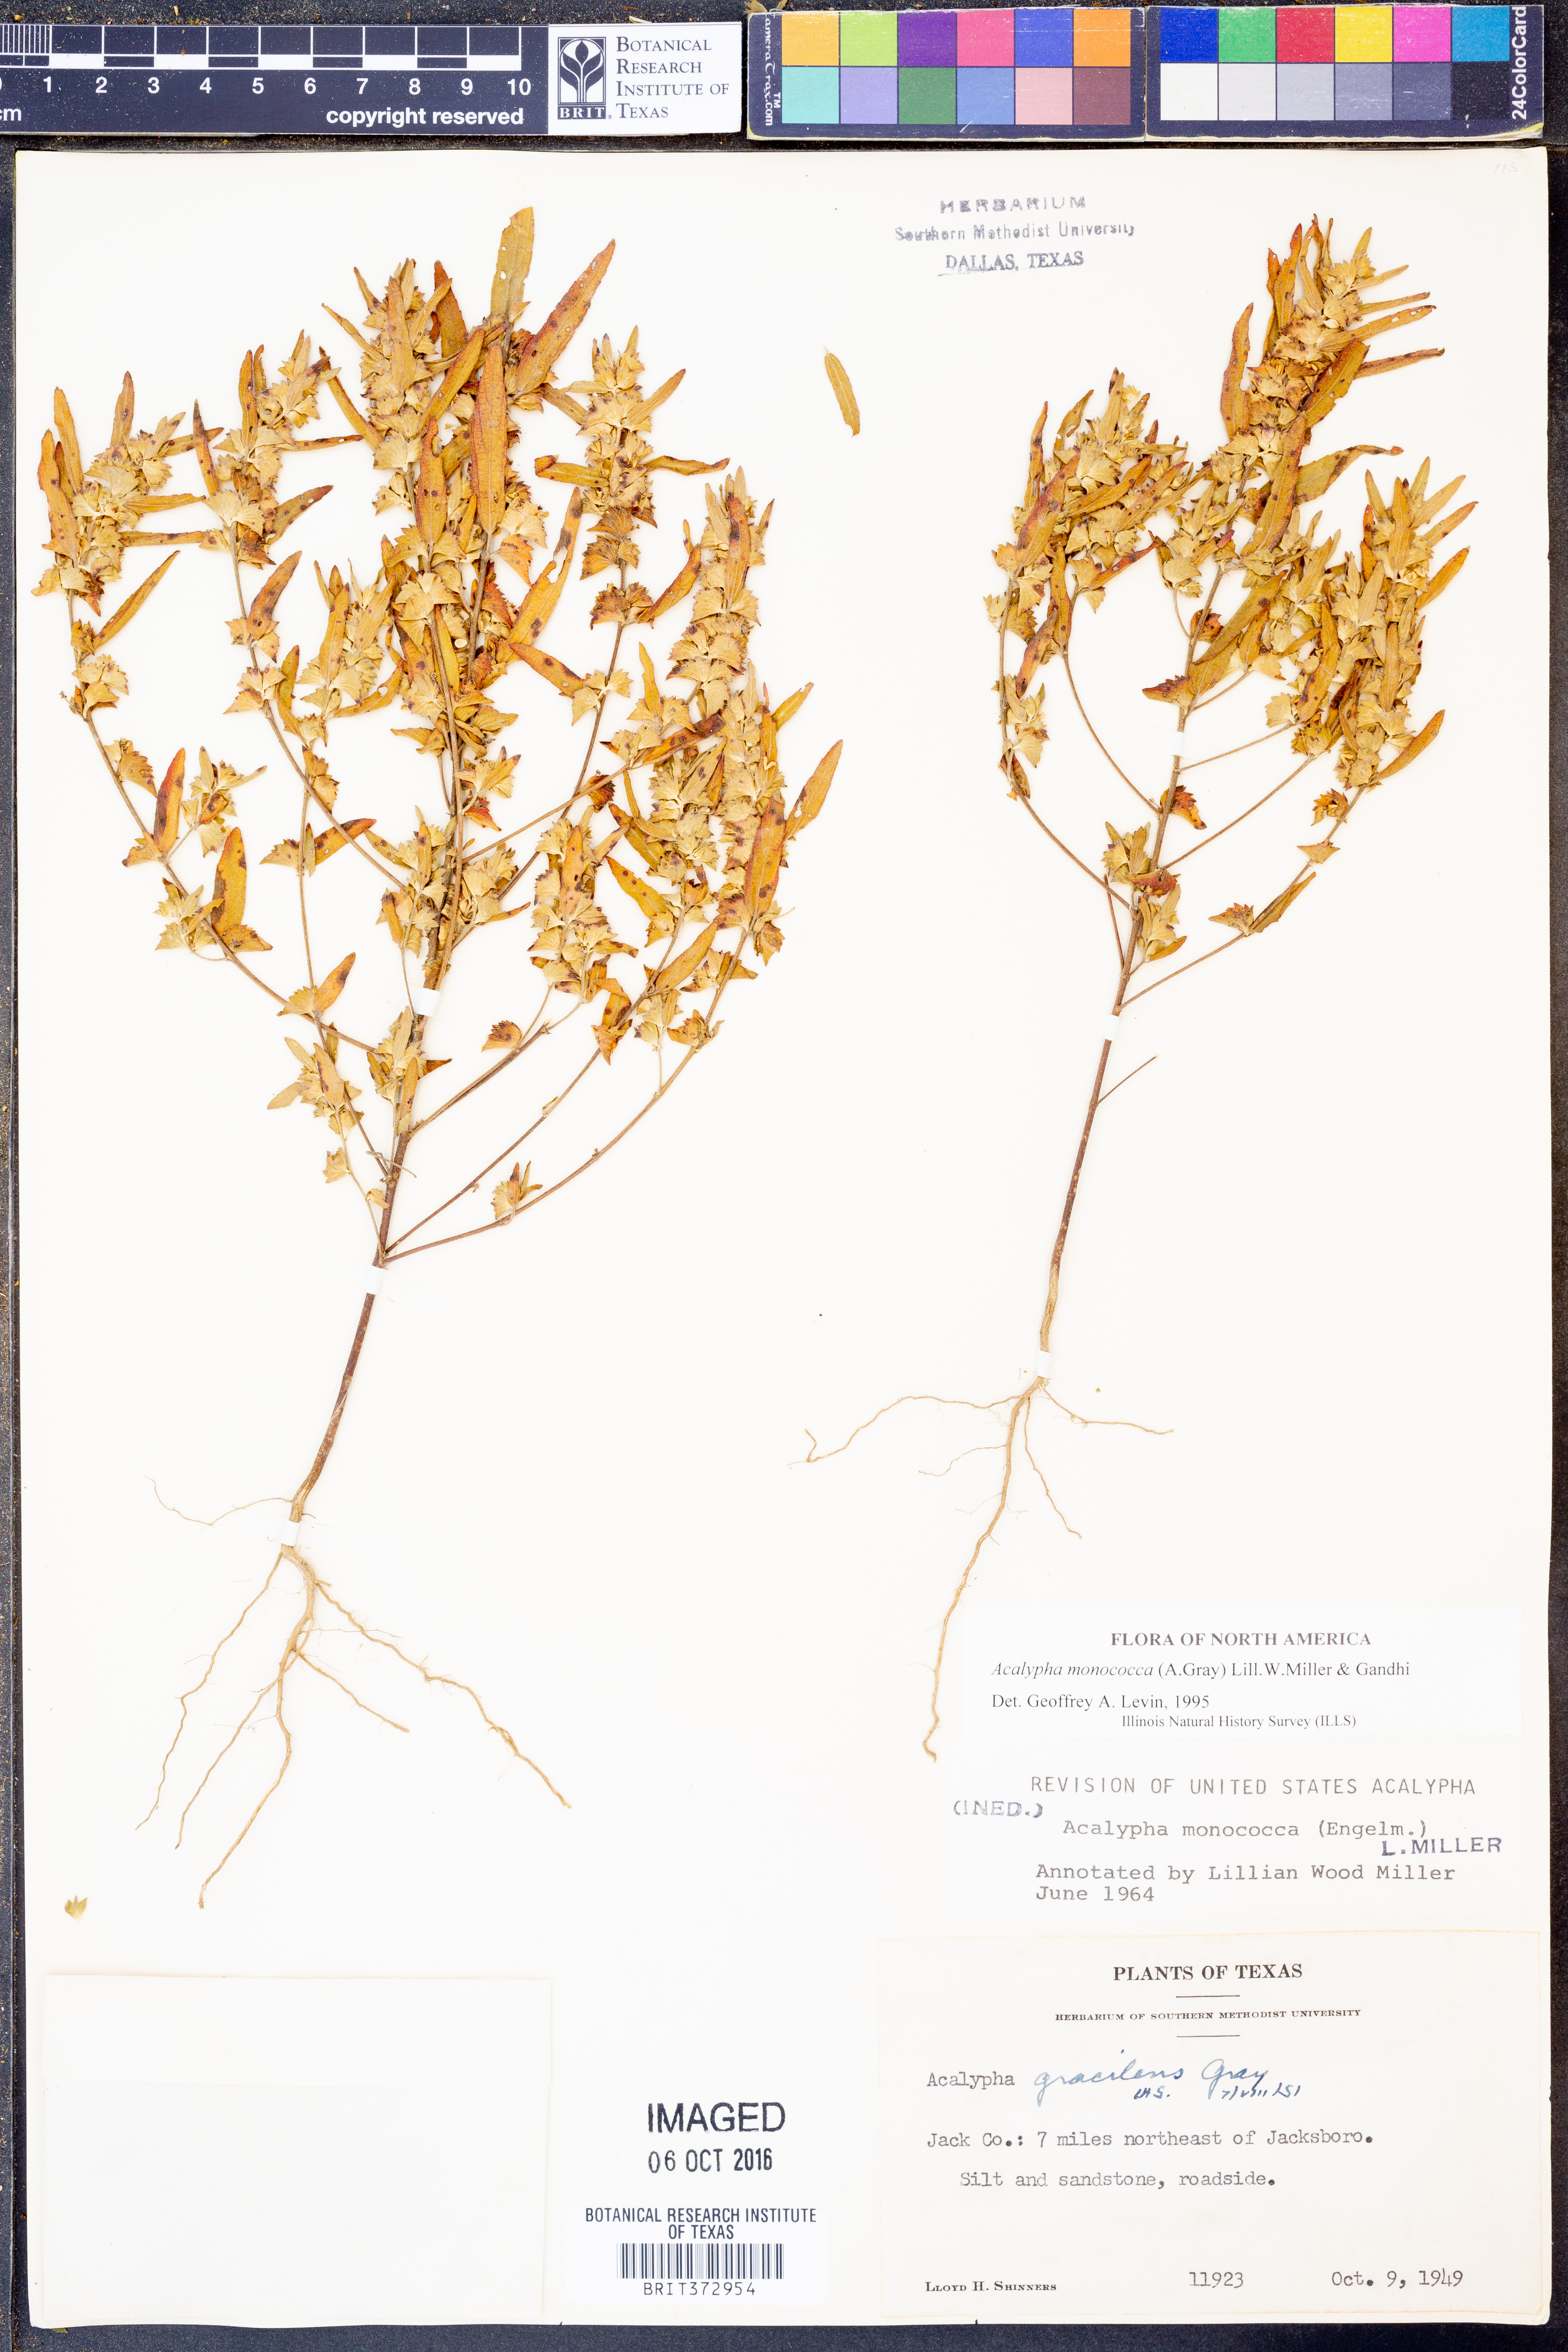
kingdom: Plantae
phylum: Tracheophyta
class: Magnoliopsida
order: Malpighiales
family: Euphorbiaceae
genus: Acalypha
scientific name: Acalypha monococca
